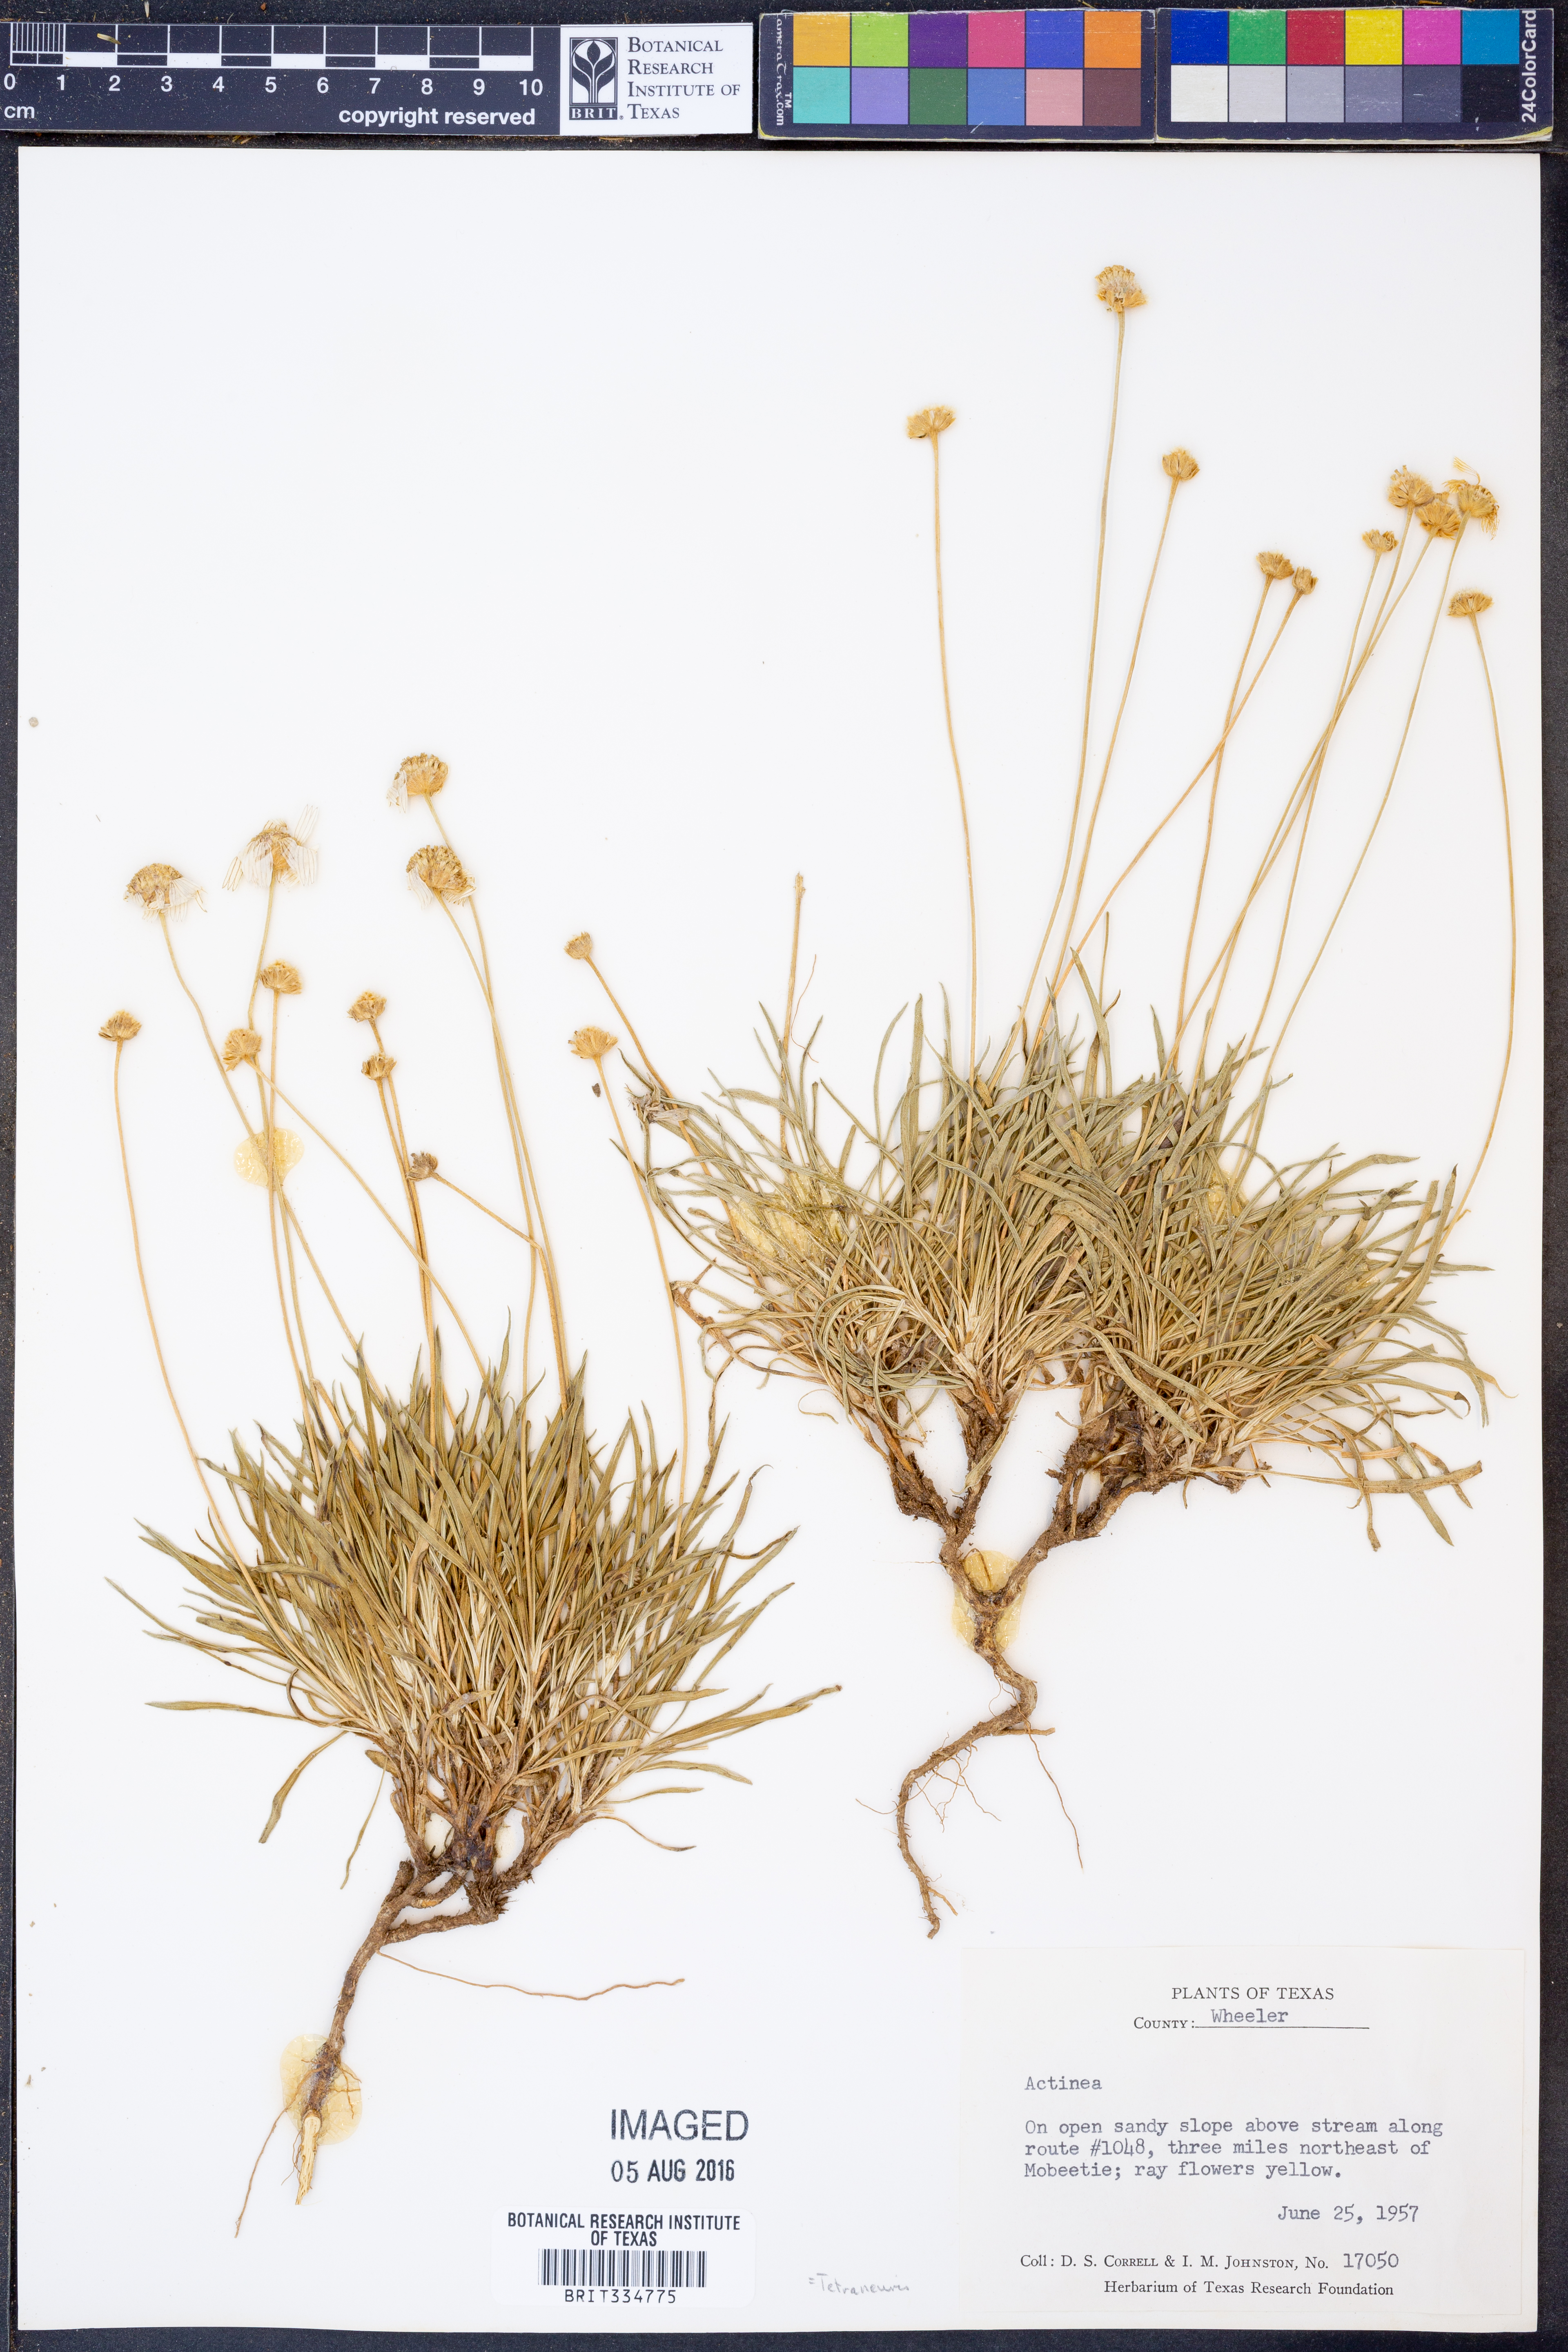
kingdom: Plantae
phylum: Tracheophyta
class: Magnoliopsida
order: Asterales
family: Asteraceae
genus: Tetraneuris
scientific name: Tetraneuris
